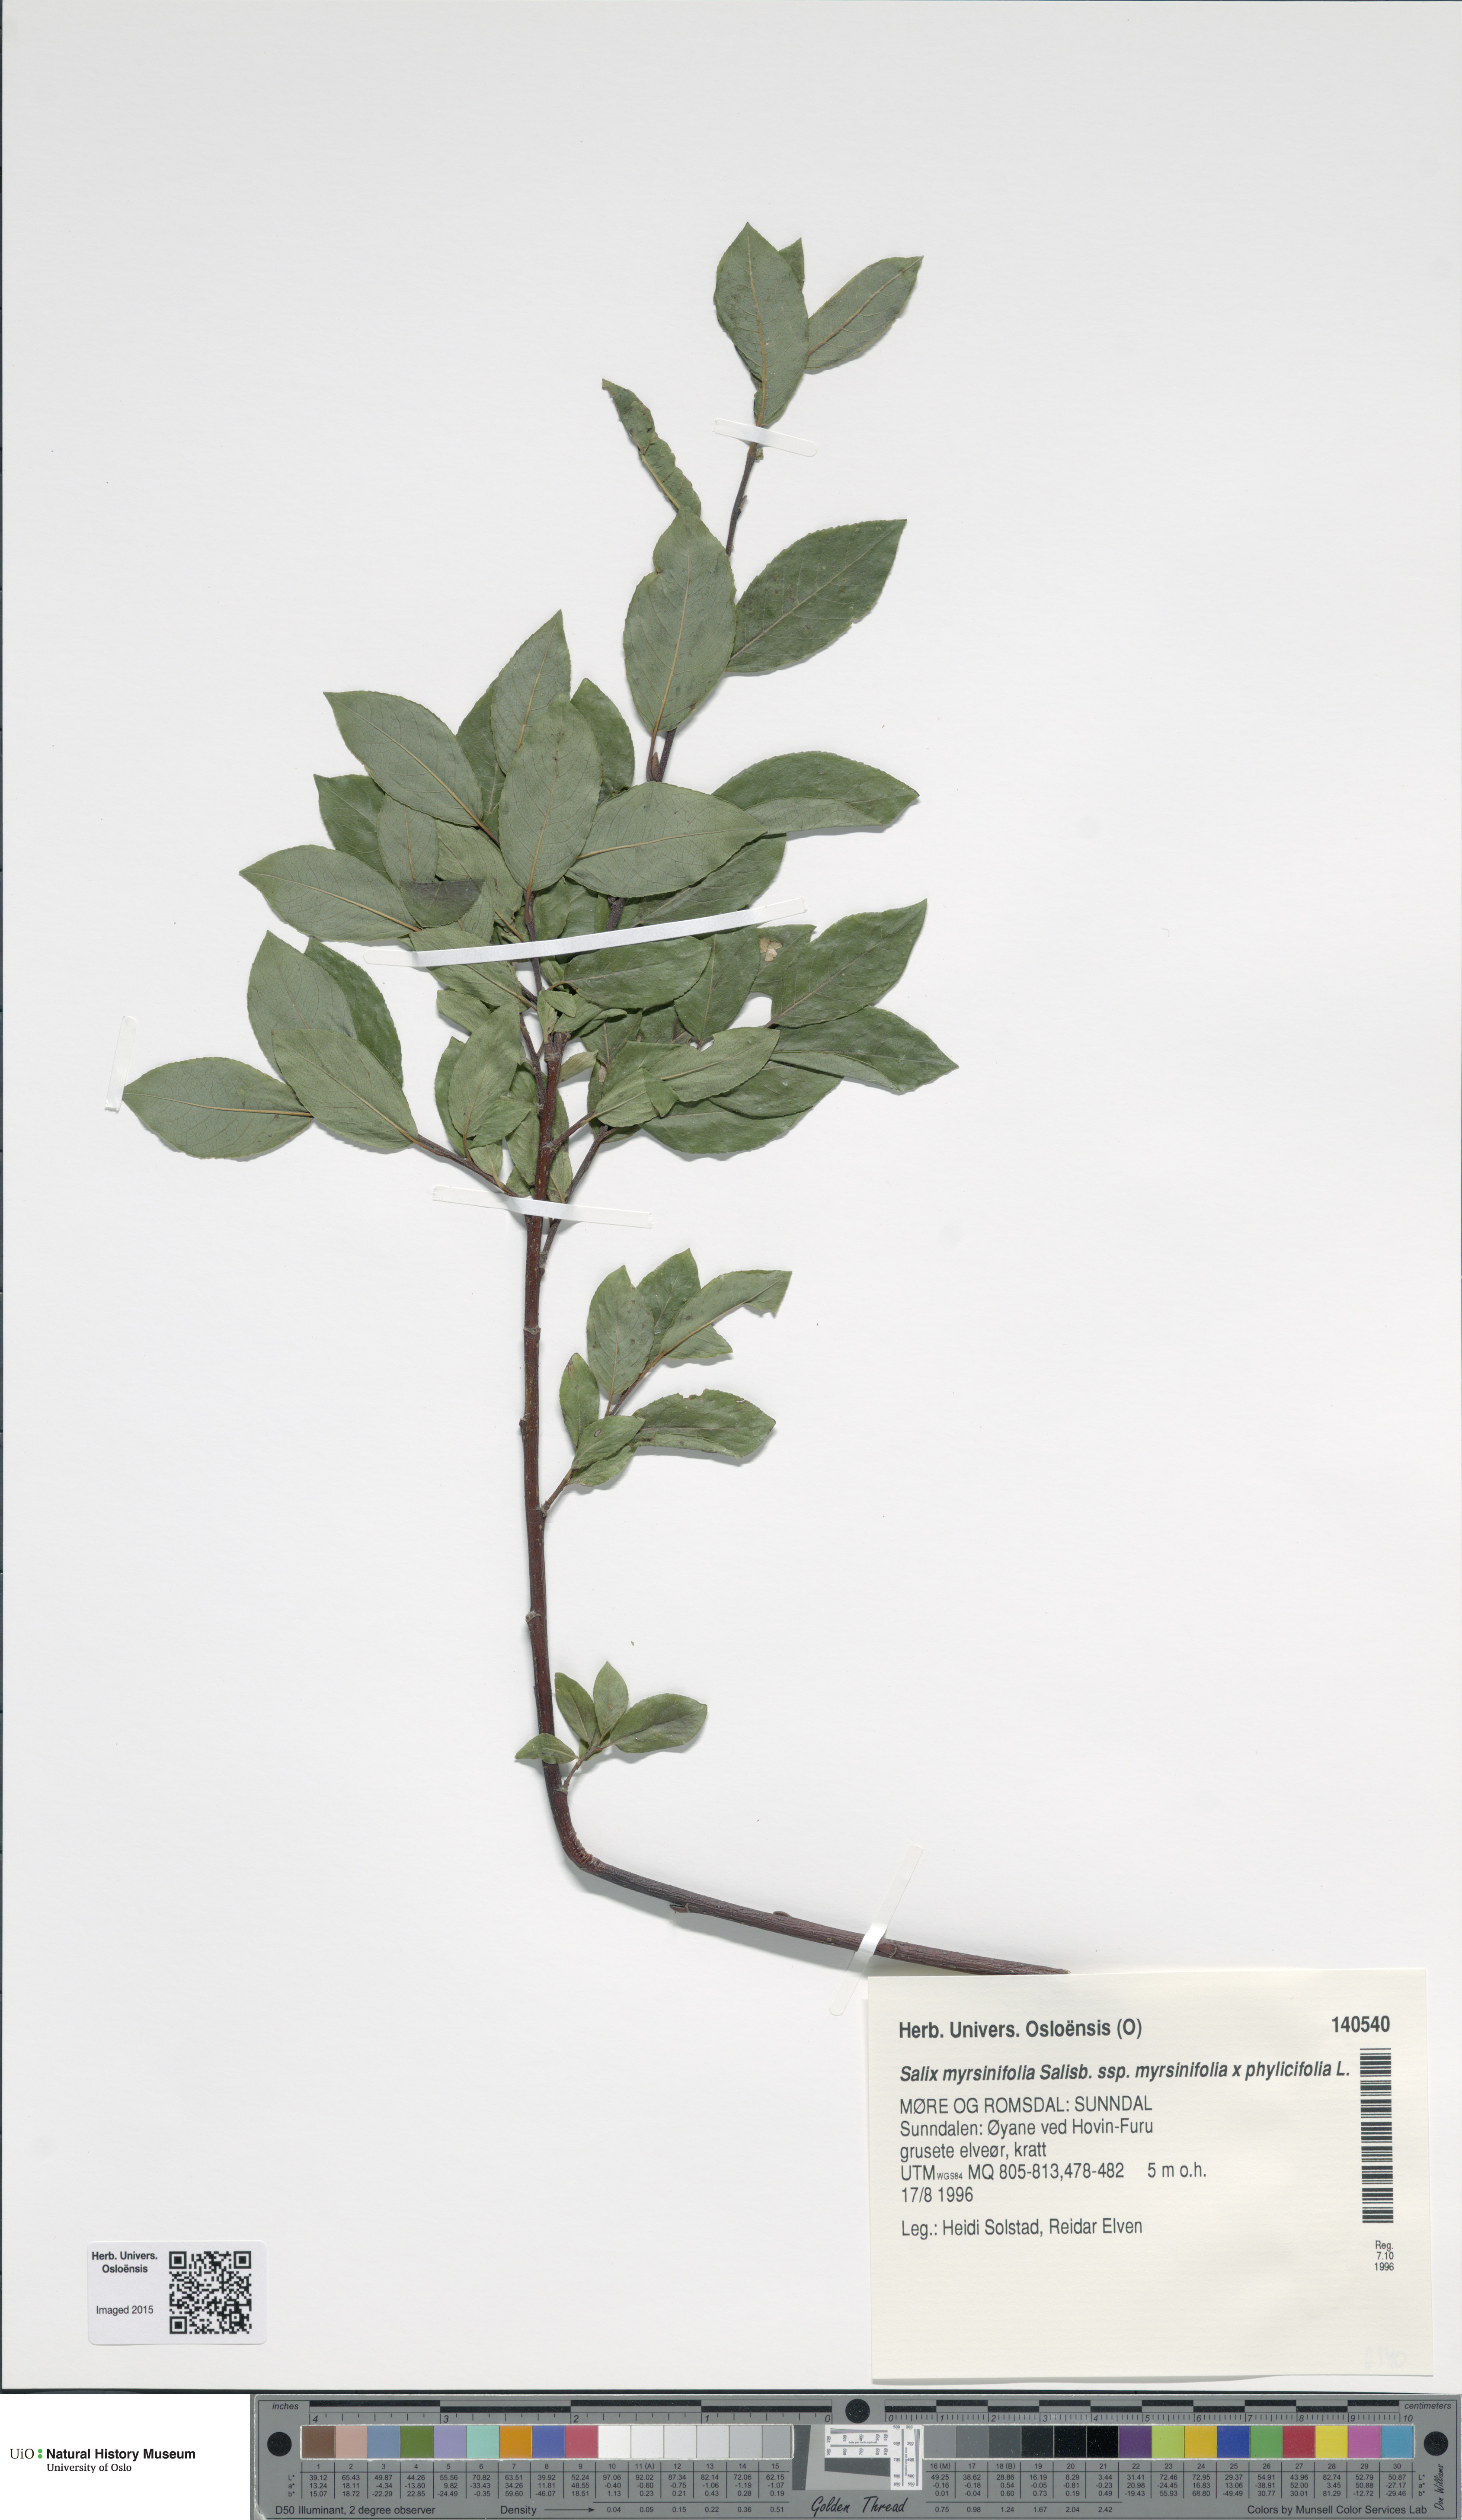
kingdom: Plantae
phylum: Tracheophyta
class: Magnoliopsida
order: Malpighiales
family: Salicaceae
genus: Salix
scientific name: Salix
